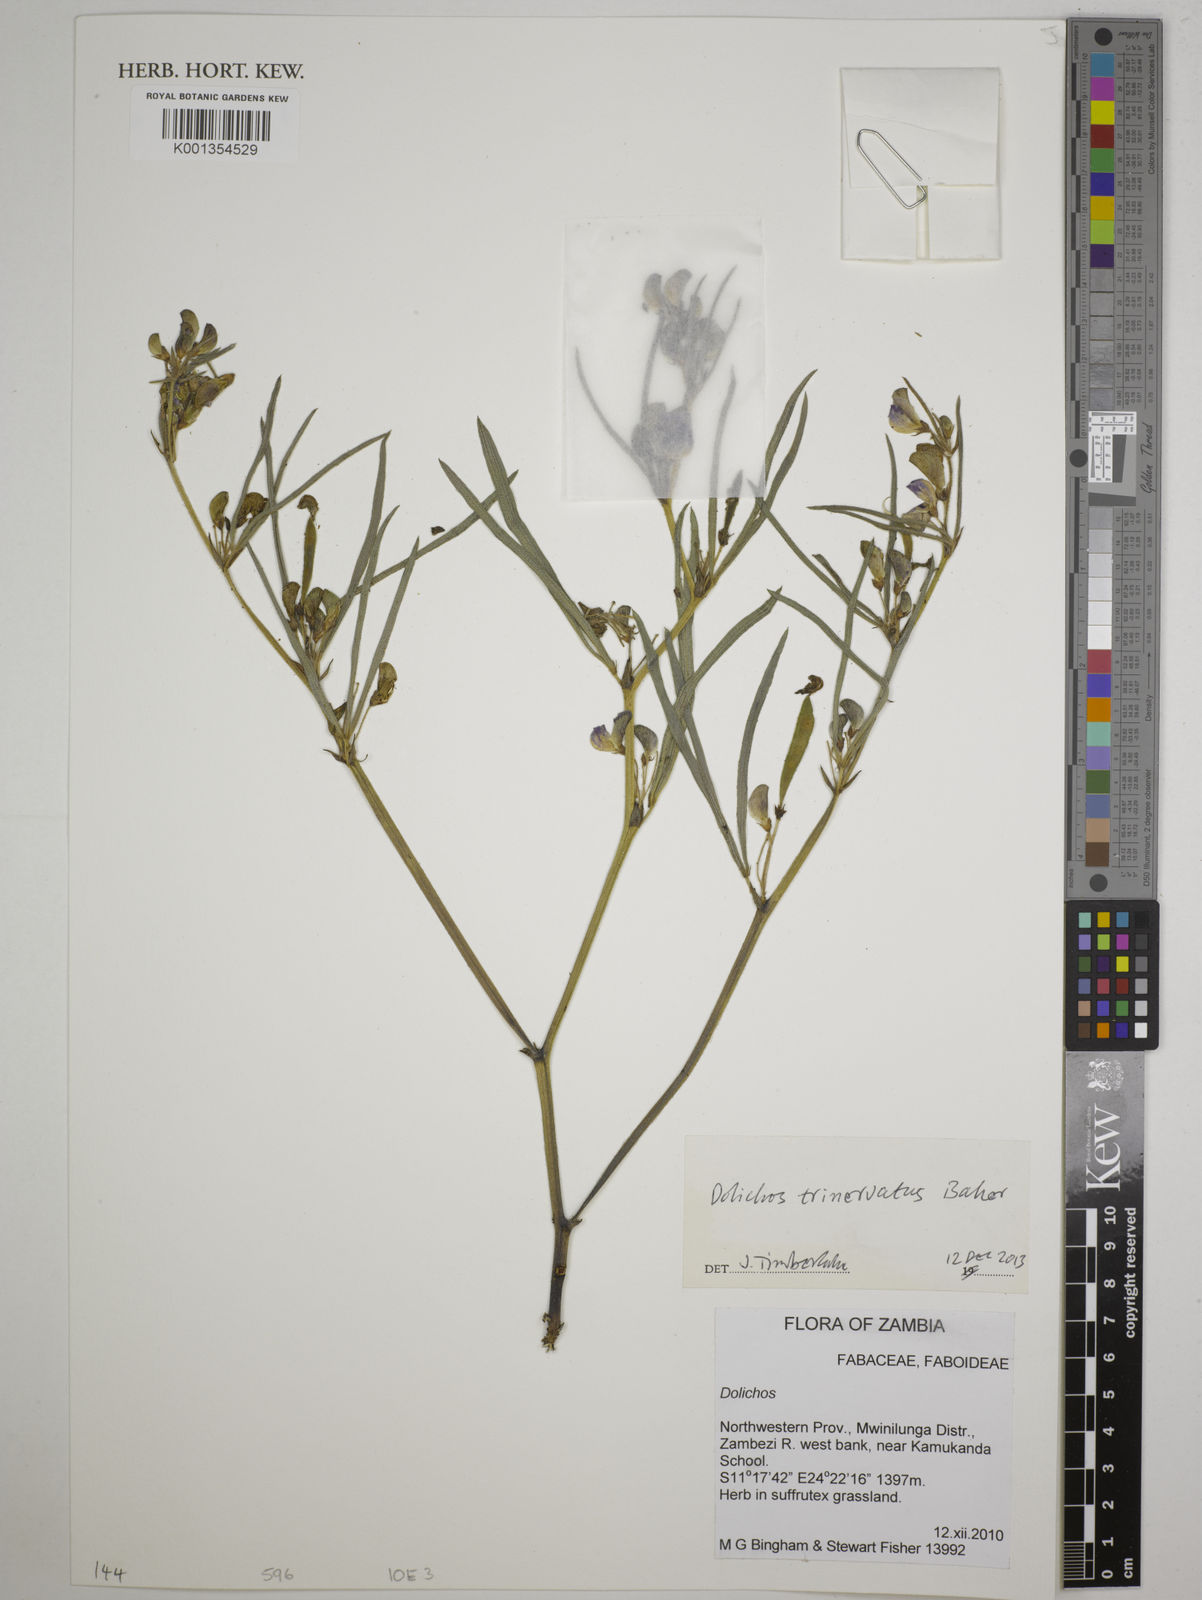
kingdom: Plantae
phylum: Tracheophyta
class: Magnoliopsida
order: Fabales
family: Fabaceae
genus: Dolichos
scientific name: Dolichos trinervatus
